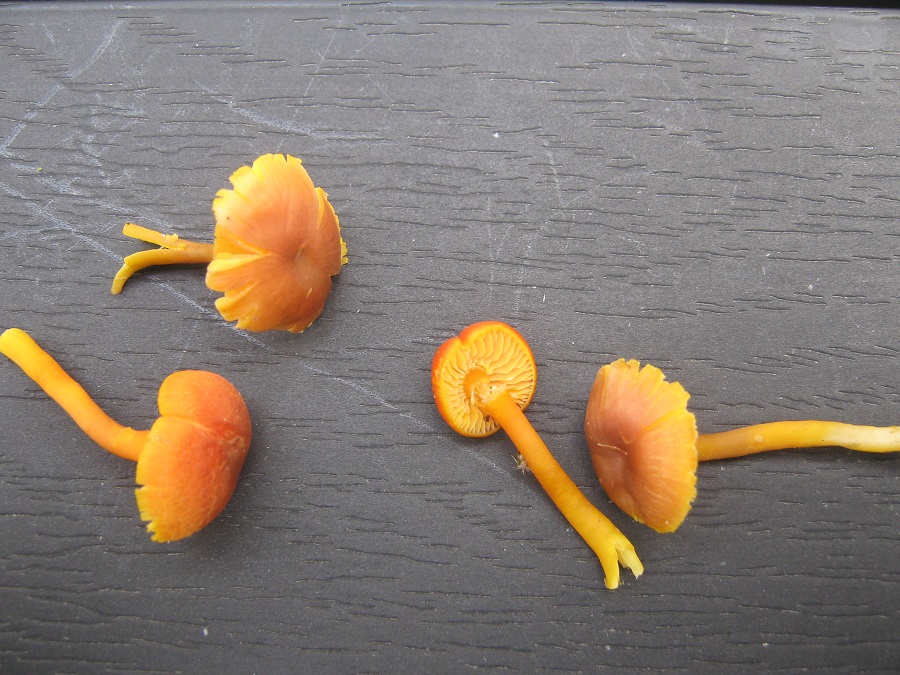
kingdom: Fungi
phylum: Basidiomycota
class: Agaricomycetes
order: Agaricales
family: Hygrophoraceae
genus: Hygrocybe
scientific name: Hygrocybe phaeococcinea
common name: sortdugget vokshat
